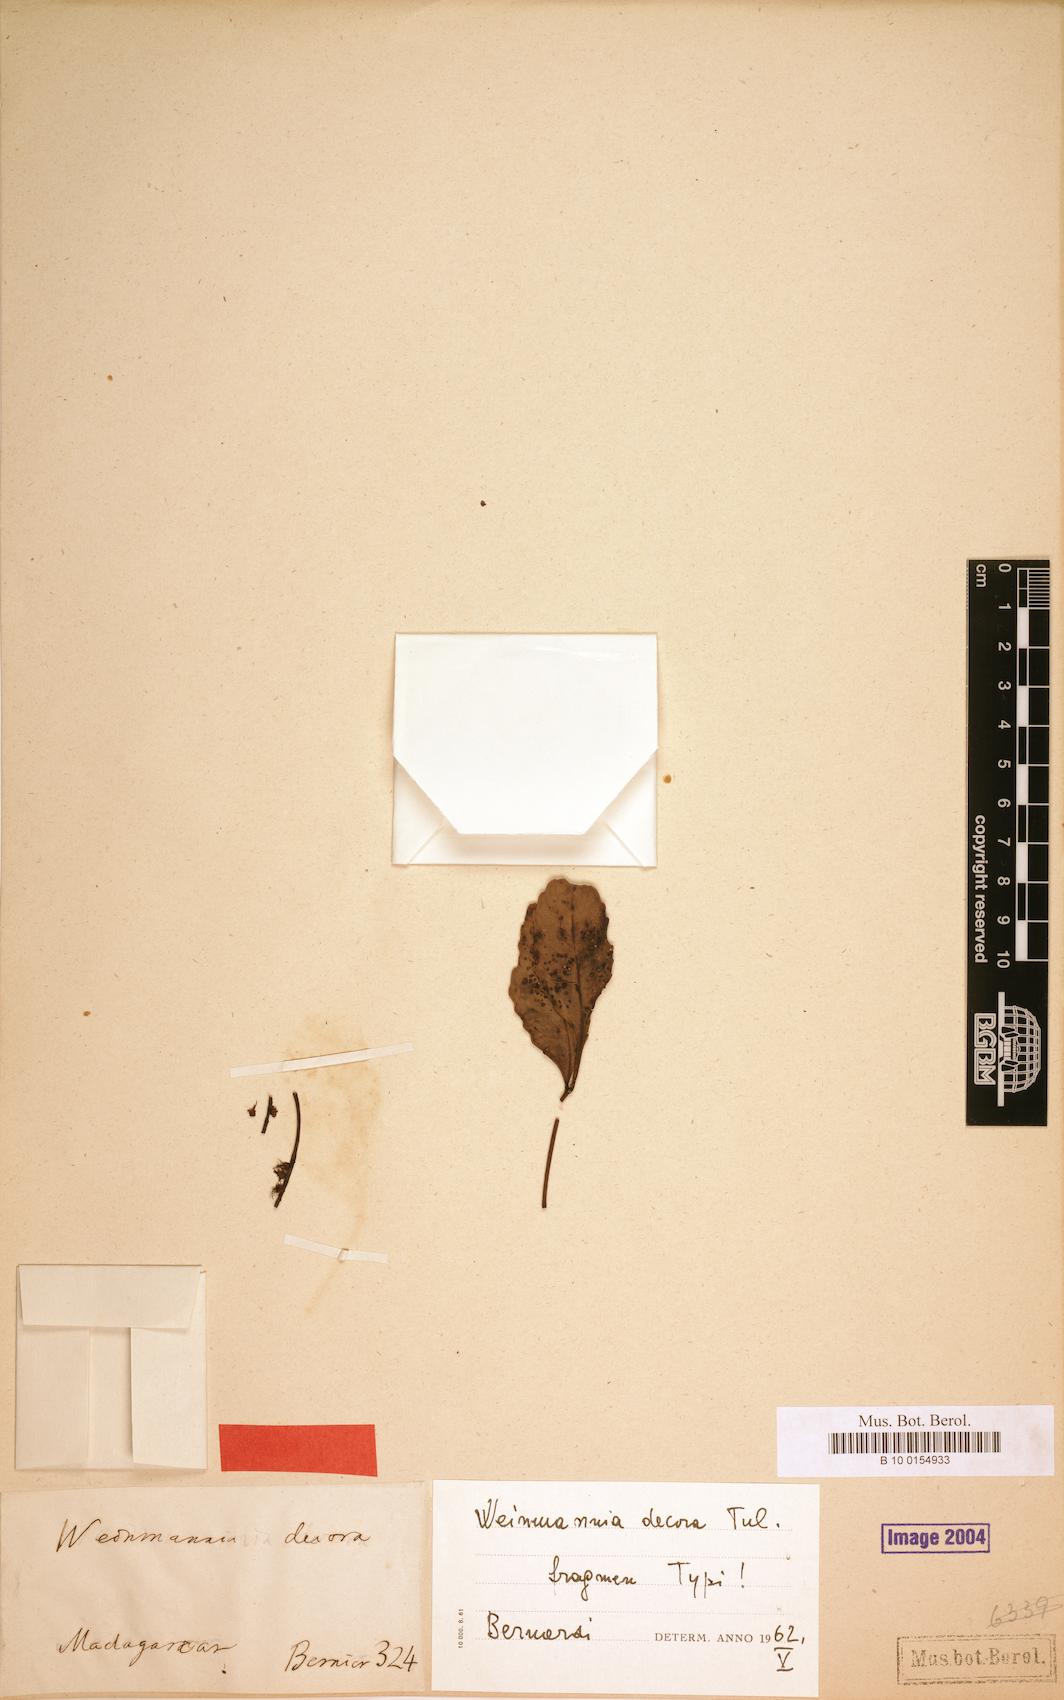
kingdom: Plantae
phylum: Tracheophyta
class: Magnoliopsida
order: Oxalidales
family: Cunoniaceae
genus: Pterophylla
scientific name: Pterophylla decora
